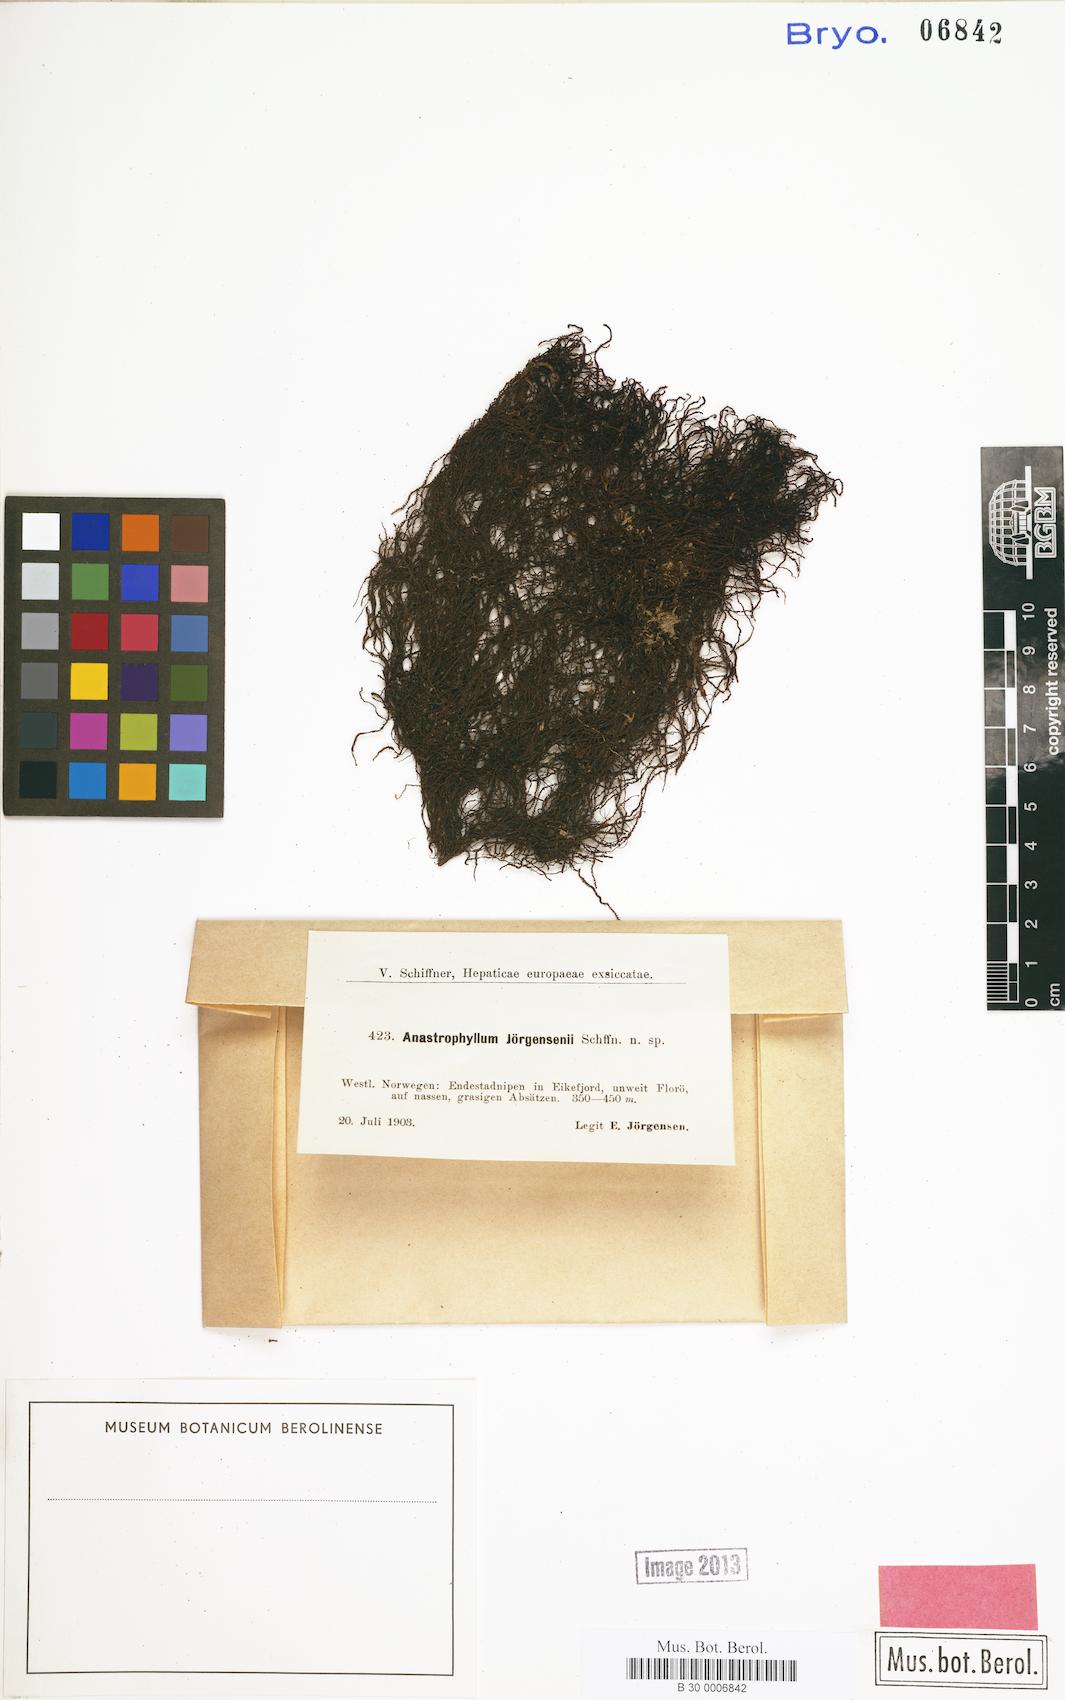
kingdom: Plantae
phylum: Marchantiophyta
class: Jungermanniopsida
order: Jungermanniales
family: Anastrophyllaceae
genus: Anastrophyllum
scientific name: Anastrophyllum
